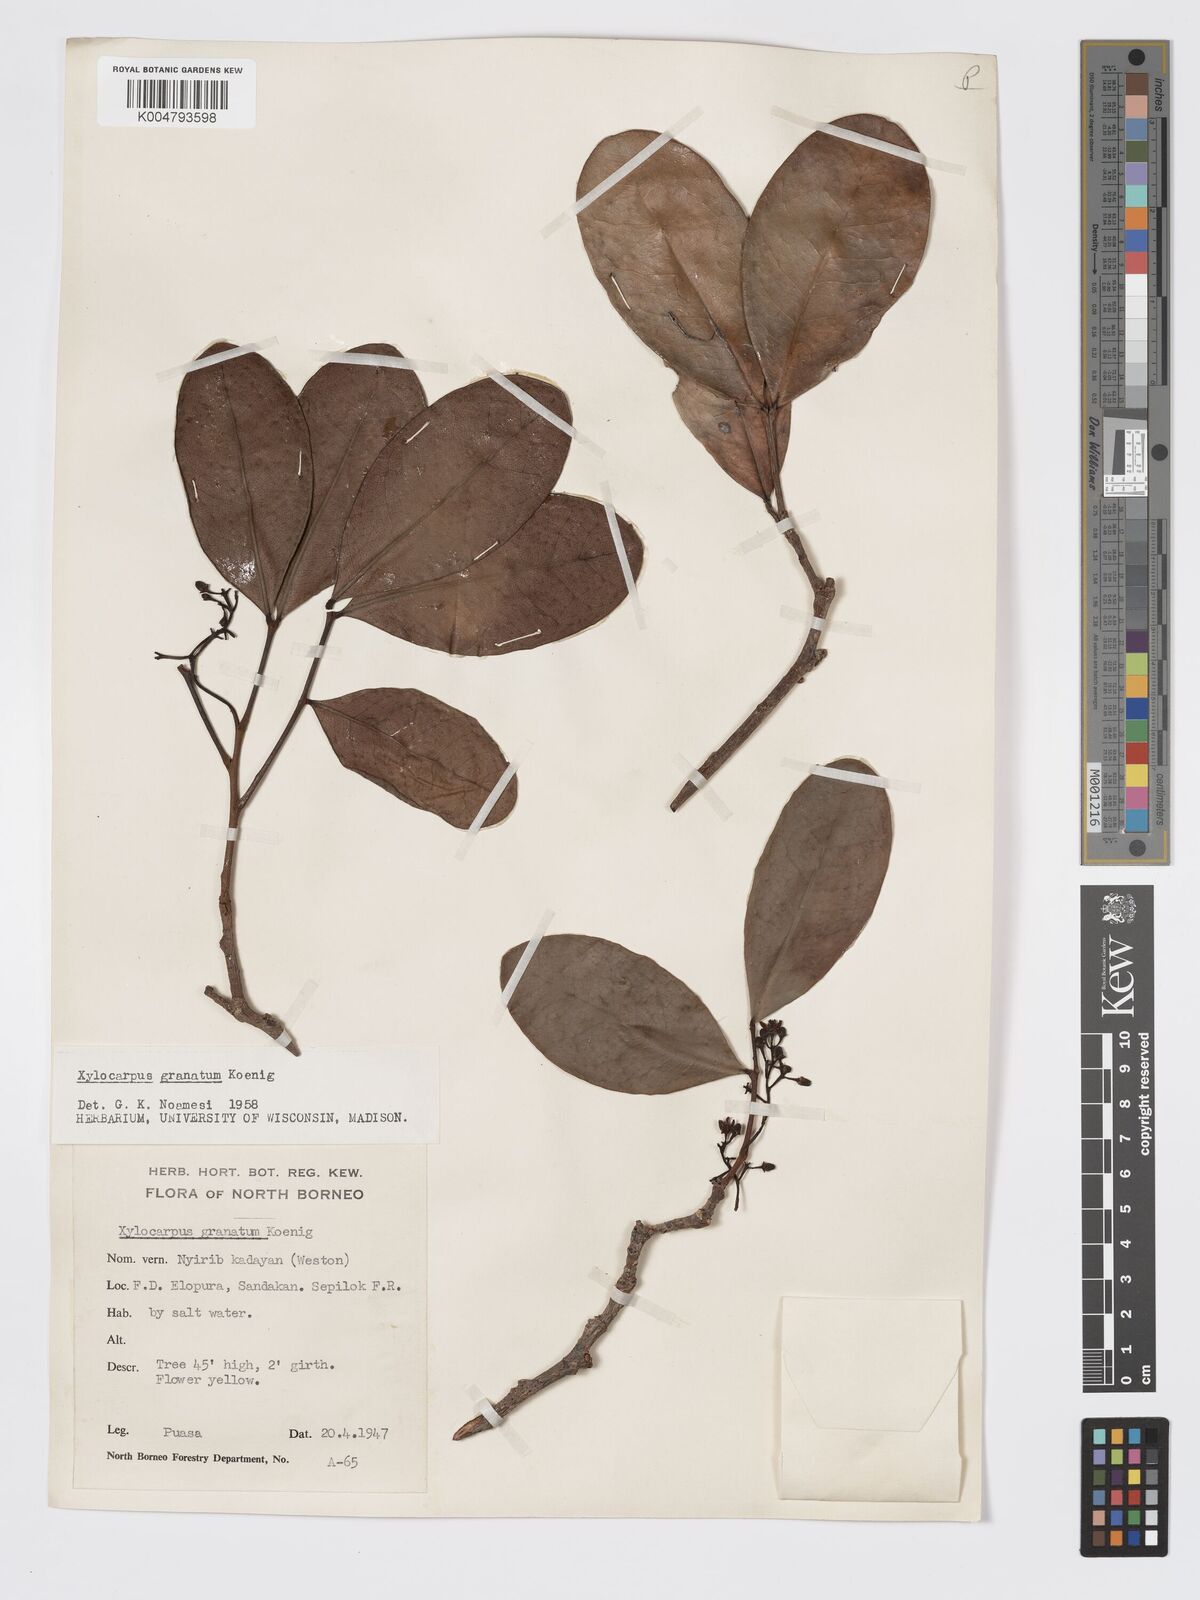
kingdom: Plantae
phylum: Tracheophyta
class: Magnoliopsida
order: Sapindales
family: Meliaceae
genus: Xylocarpus
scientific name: Xylocarpus granatum
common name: Apple mangrove
